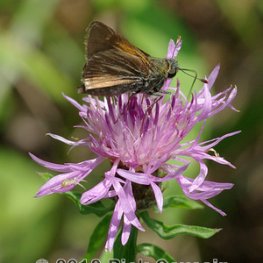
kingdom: Animalia
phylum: Arthropoda
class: Insecta
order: Lepidoptera
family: Hesperiidae
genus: Polites
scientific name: Polites themistocles
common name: Tawny-edged Skipper
